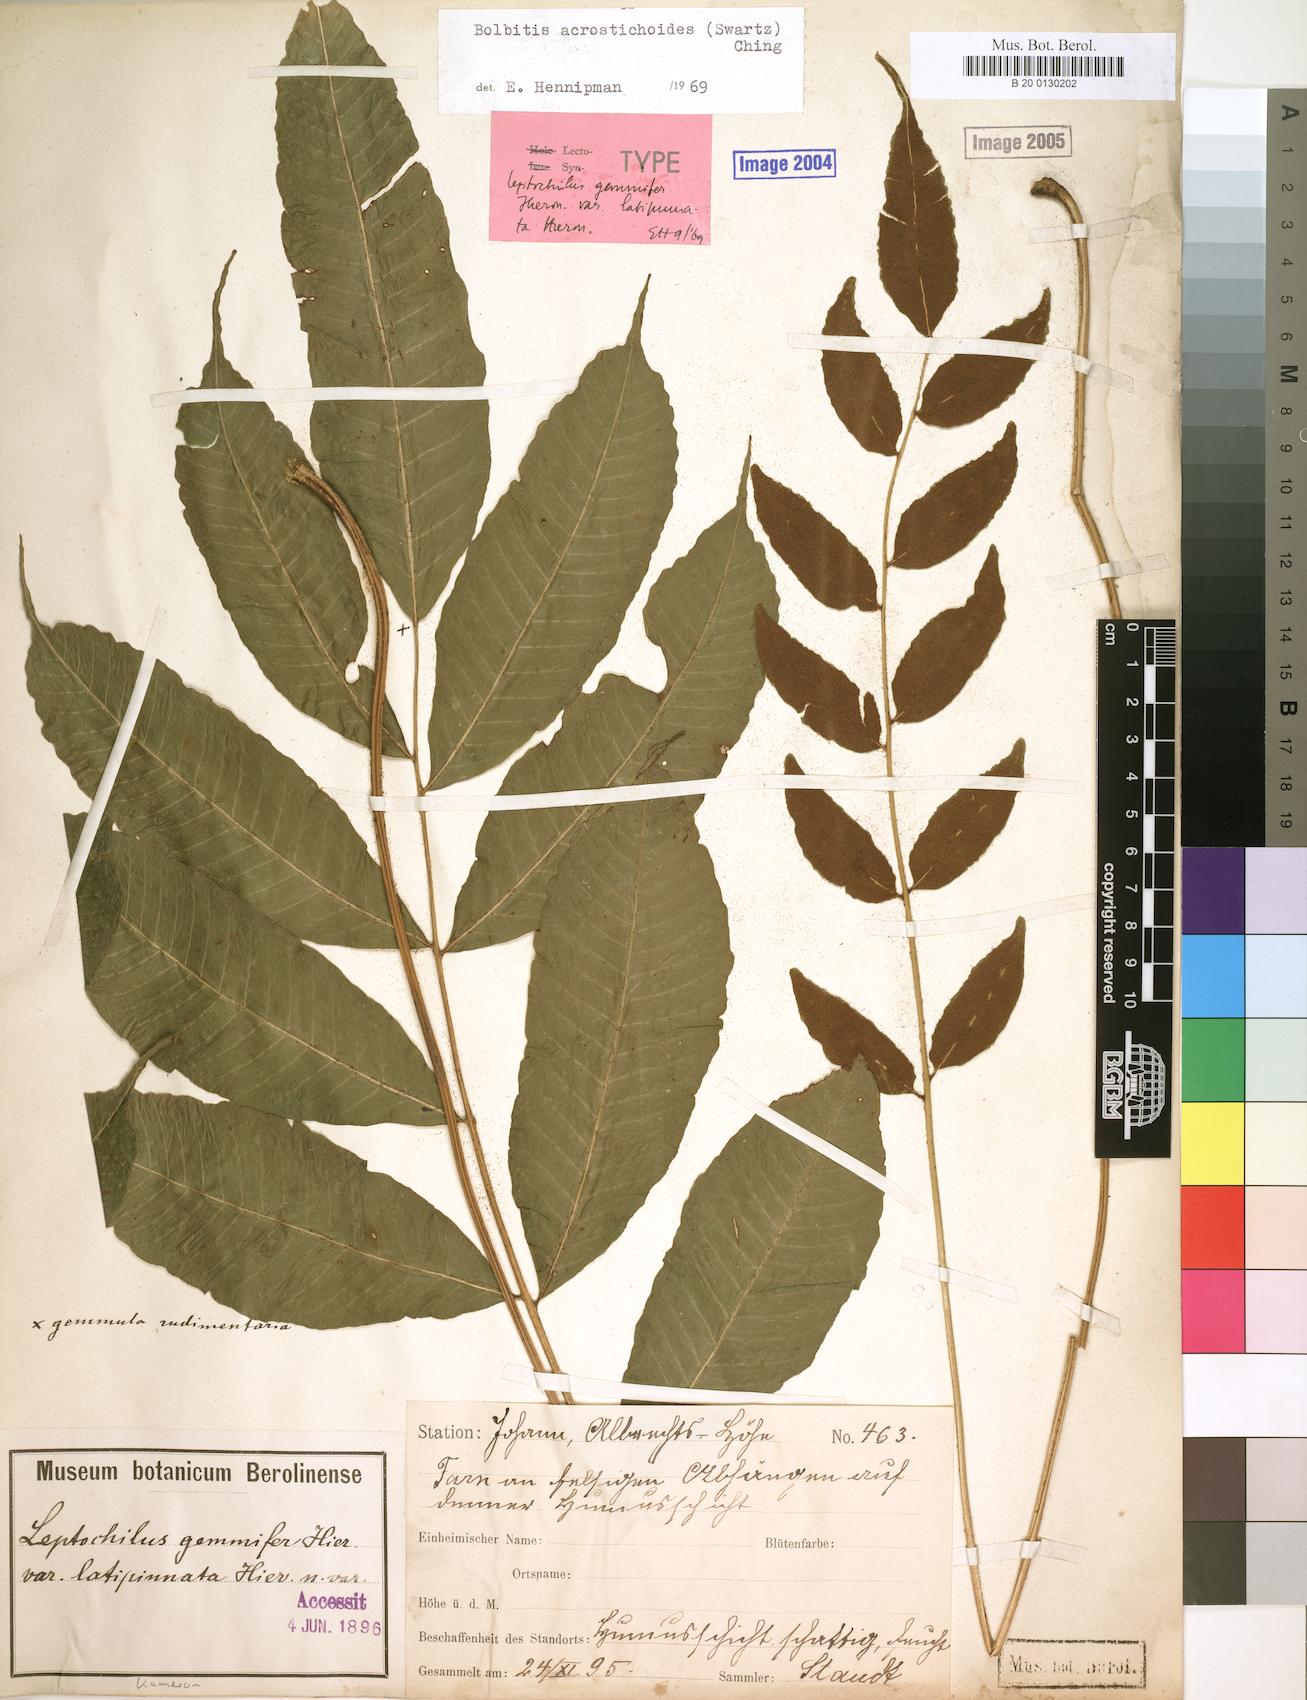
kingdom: Plantae
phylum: Tracheophyta
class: Polypodiopsida
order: Polypodiales
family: Dryopteridaceae
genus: Bolbitis
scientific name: Bolbitis gemmifer
